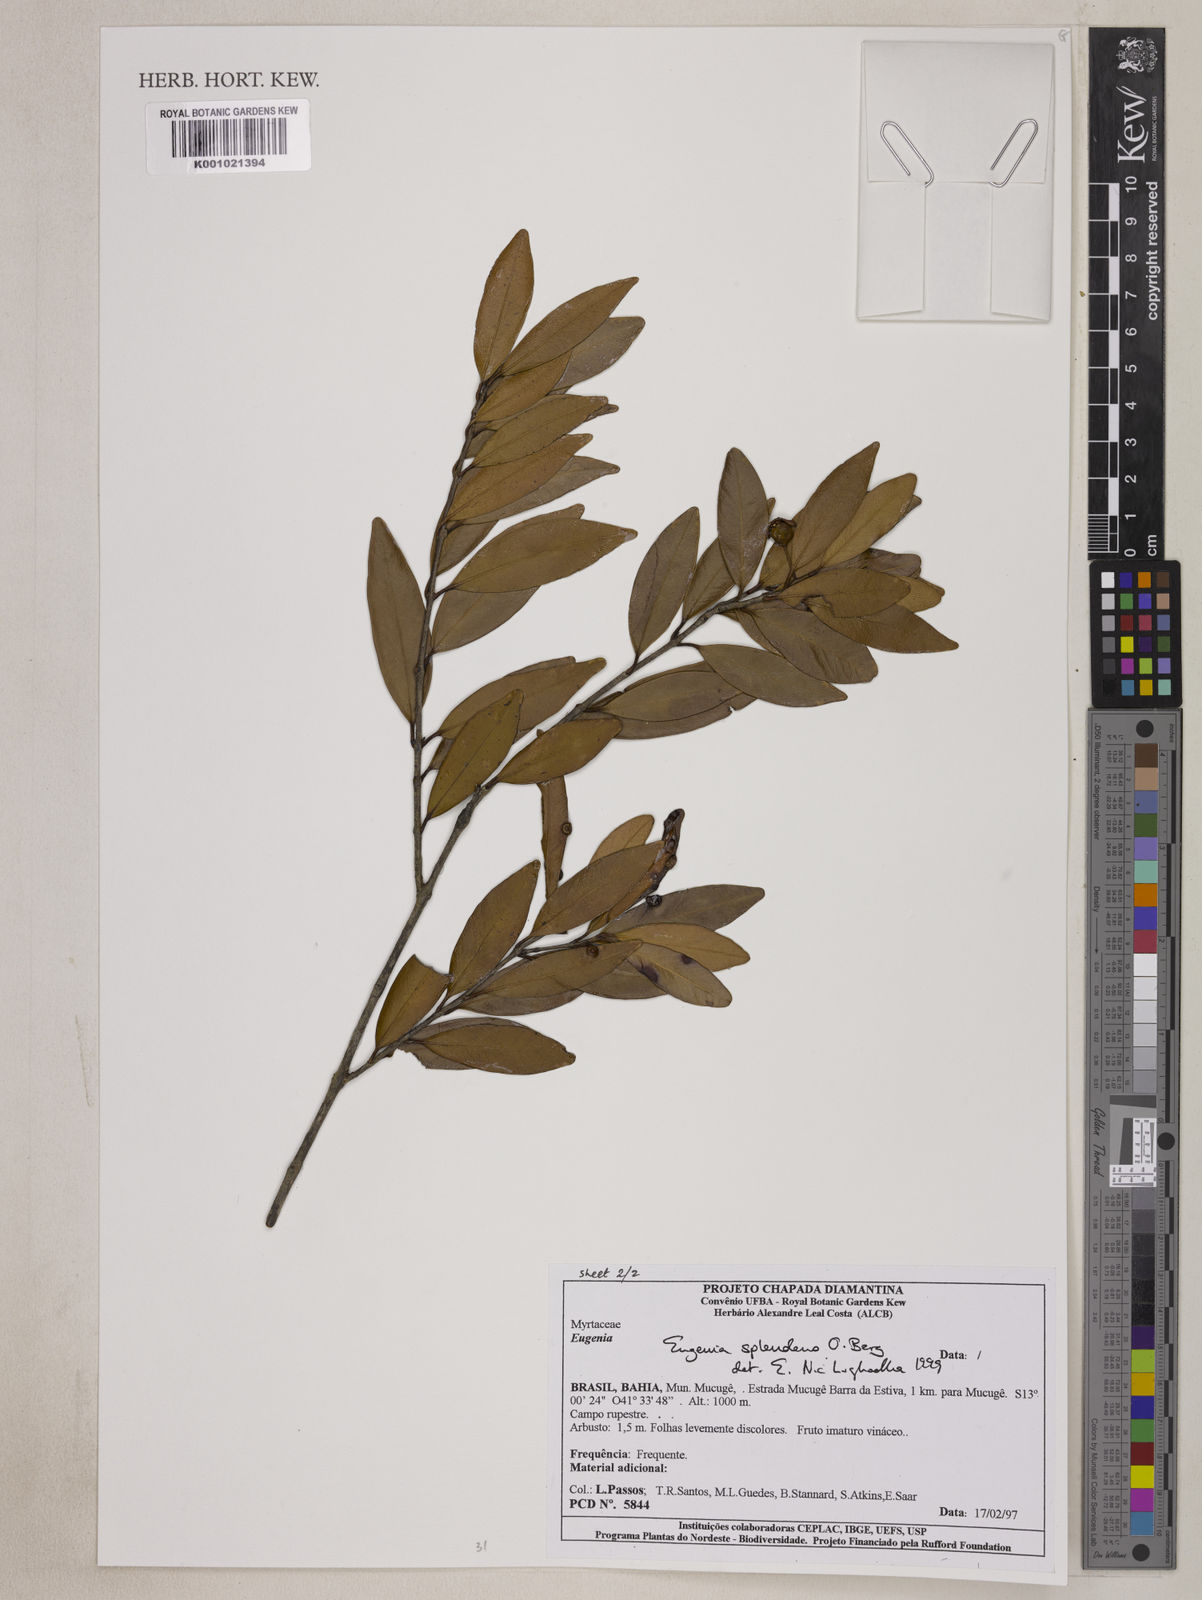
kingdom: Plantae
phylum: Tracheophyta
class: Magnoliopsida
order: Myrtales
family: Myrtaceae
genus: Eugenia
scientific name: Eugenia splendens
